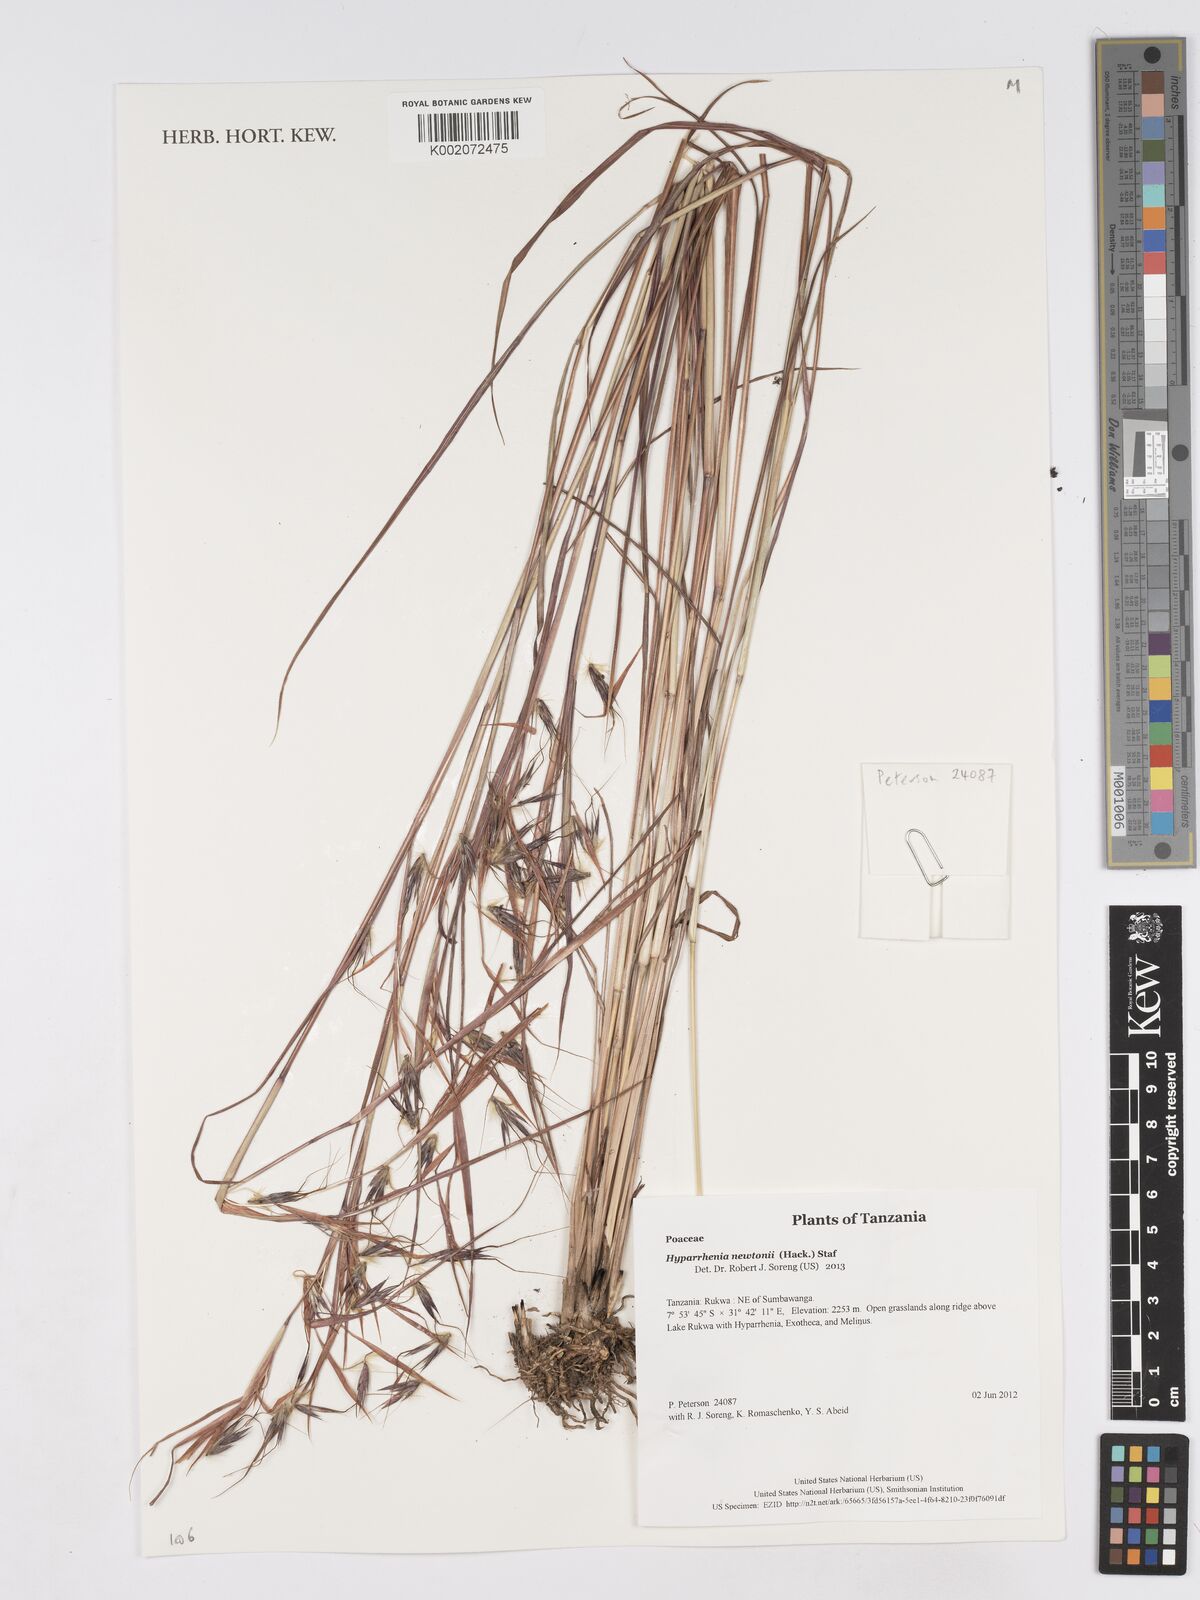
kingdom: Plantae
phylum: Tracheophyta
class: Liliopsida
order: Poales
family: Poaceae
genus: Hyparrhenia
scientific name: Hyparrhenia newtonii
